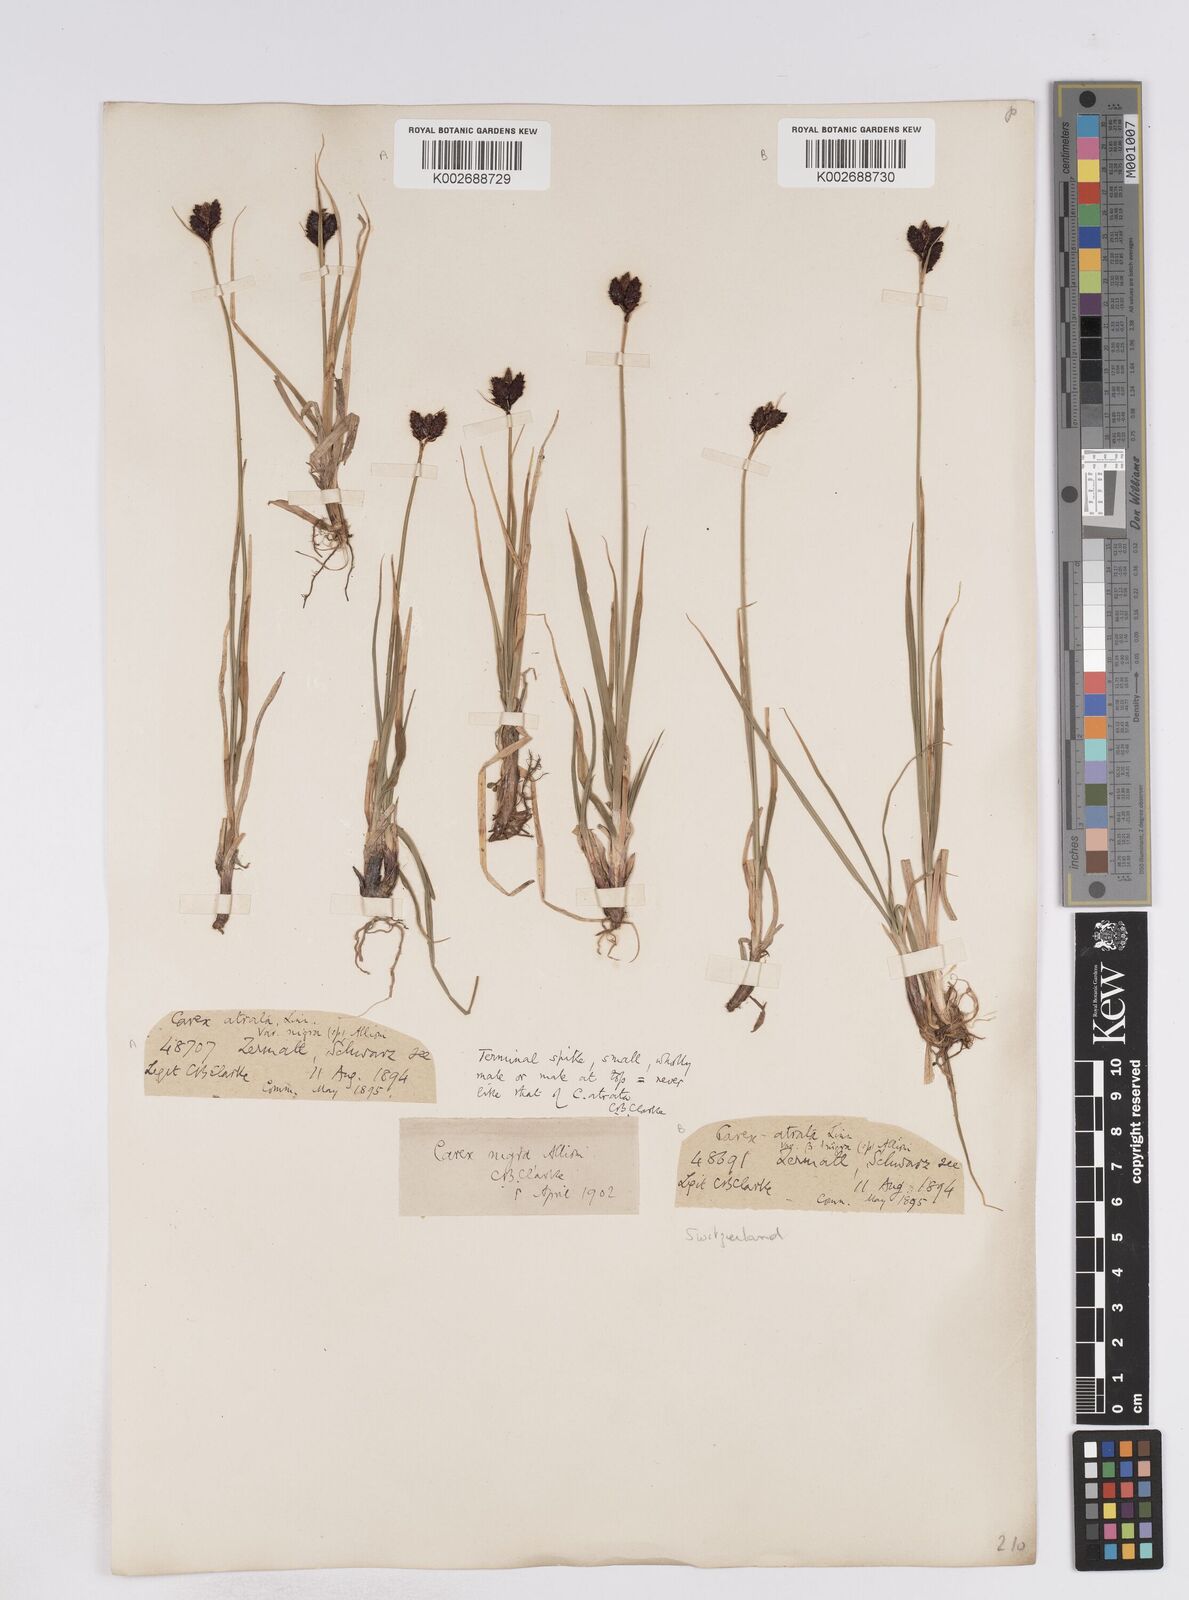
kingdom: Plantae
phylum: Tracheophyta
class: Liliopsida
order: Poales
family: Cyperaceae
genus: Carex
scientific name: Carex parviflora
